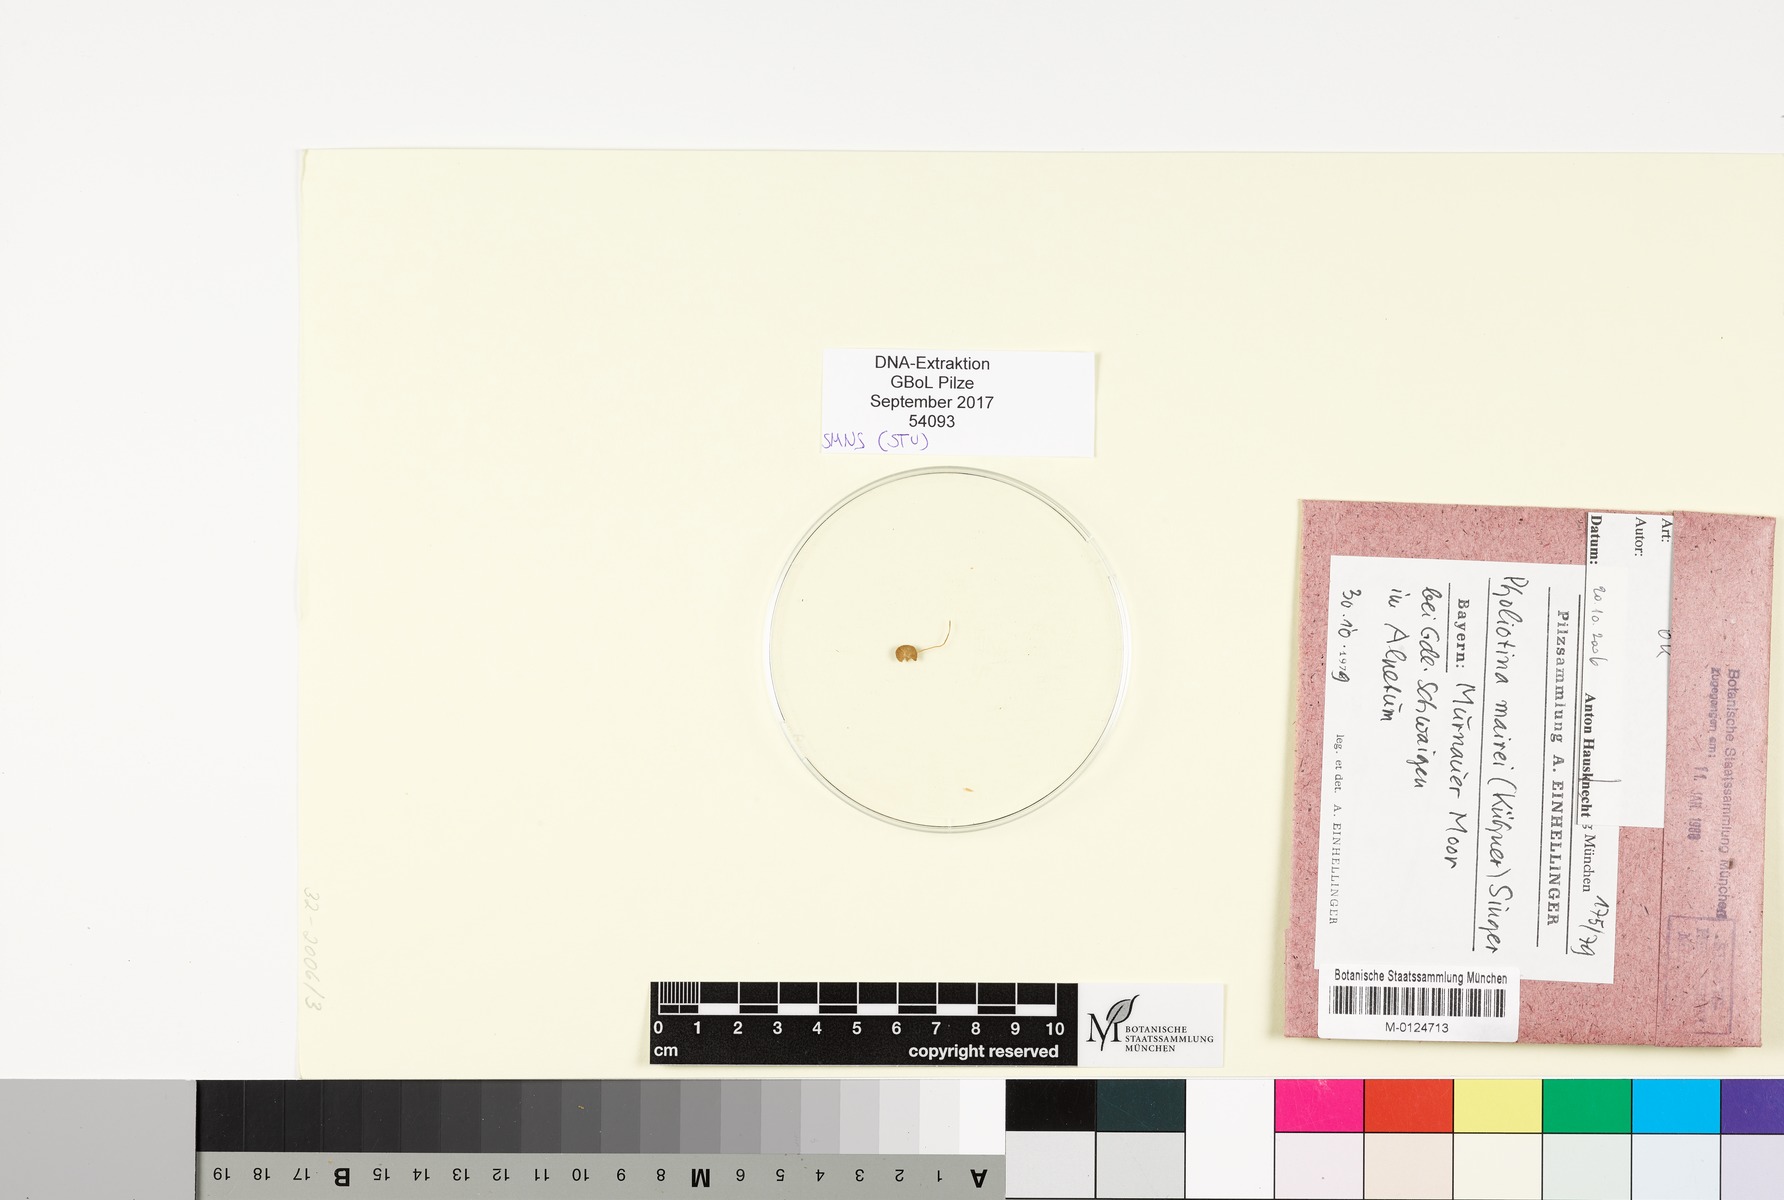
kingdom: Fungi
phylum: Basidiomycota
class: Agaricomycetes
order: Agaricales
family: Bolbitiaceae
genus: Conocybe
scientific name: Conocybe mairei
